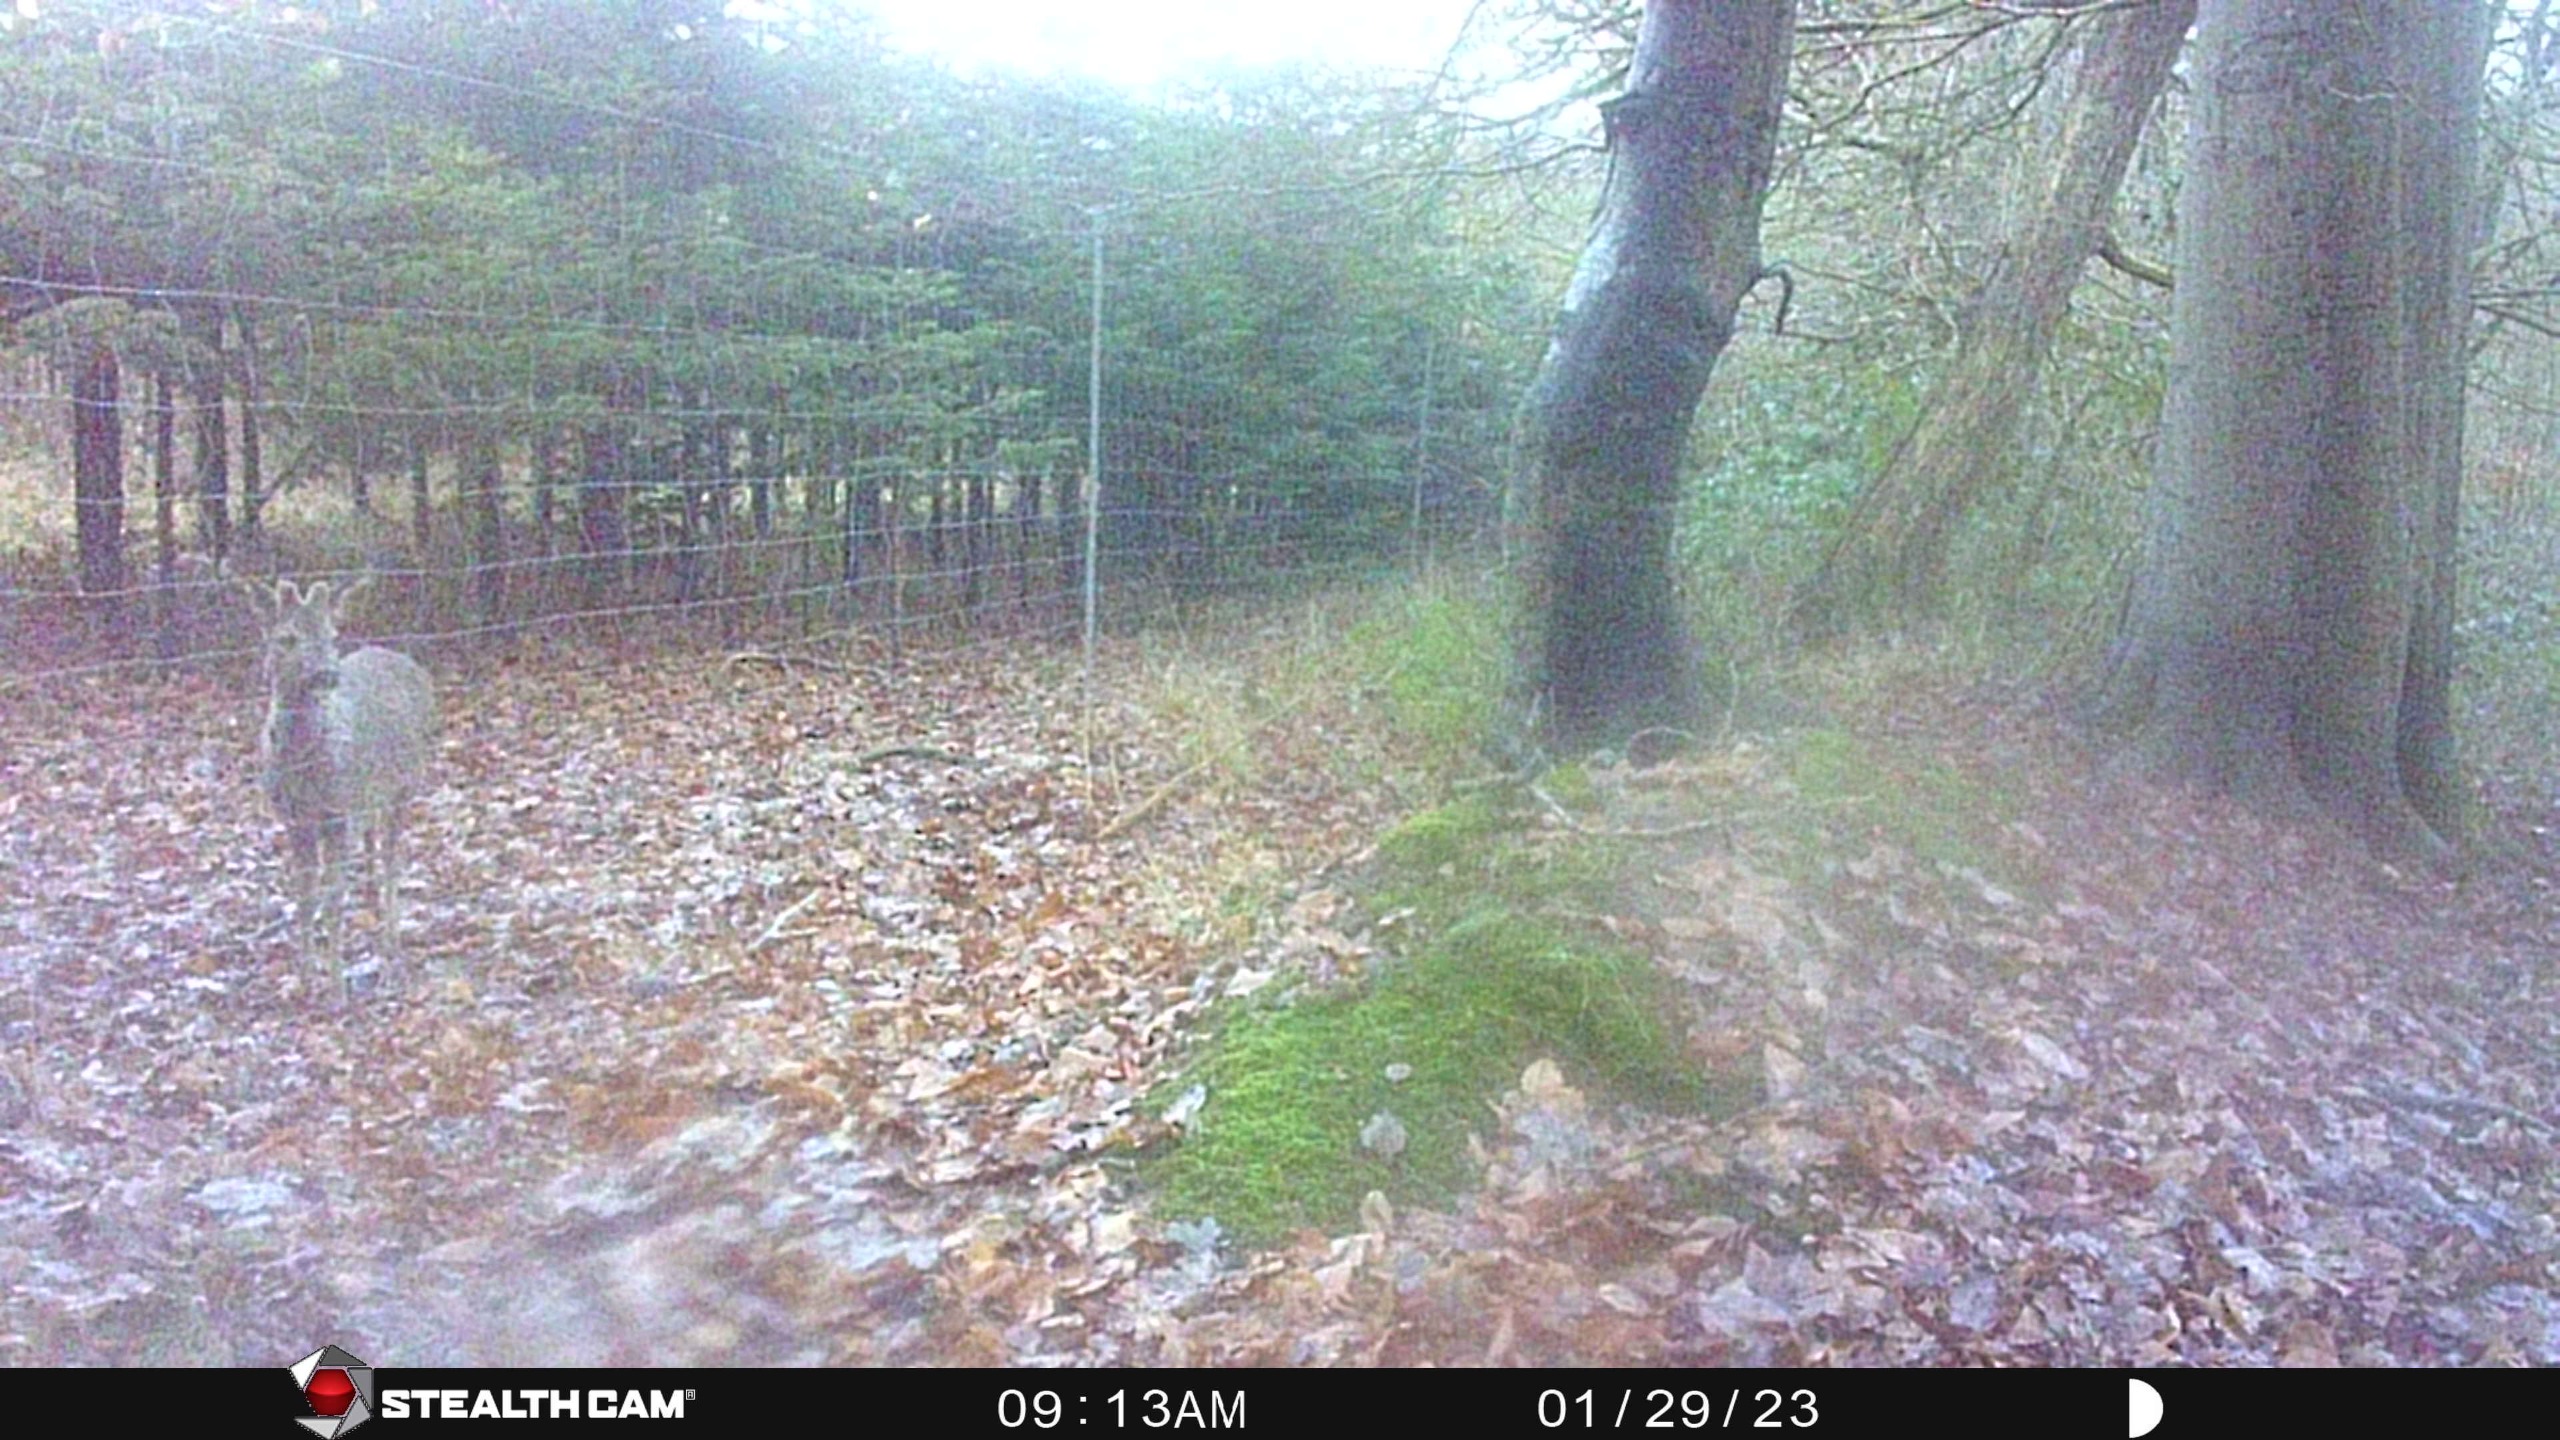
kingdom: Animalia
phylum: Chordata
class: Mammalia
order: Artiodactyla
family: Cervidae
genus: Capreolus
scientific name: Capreolus capreolus
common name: Rådyr
